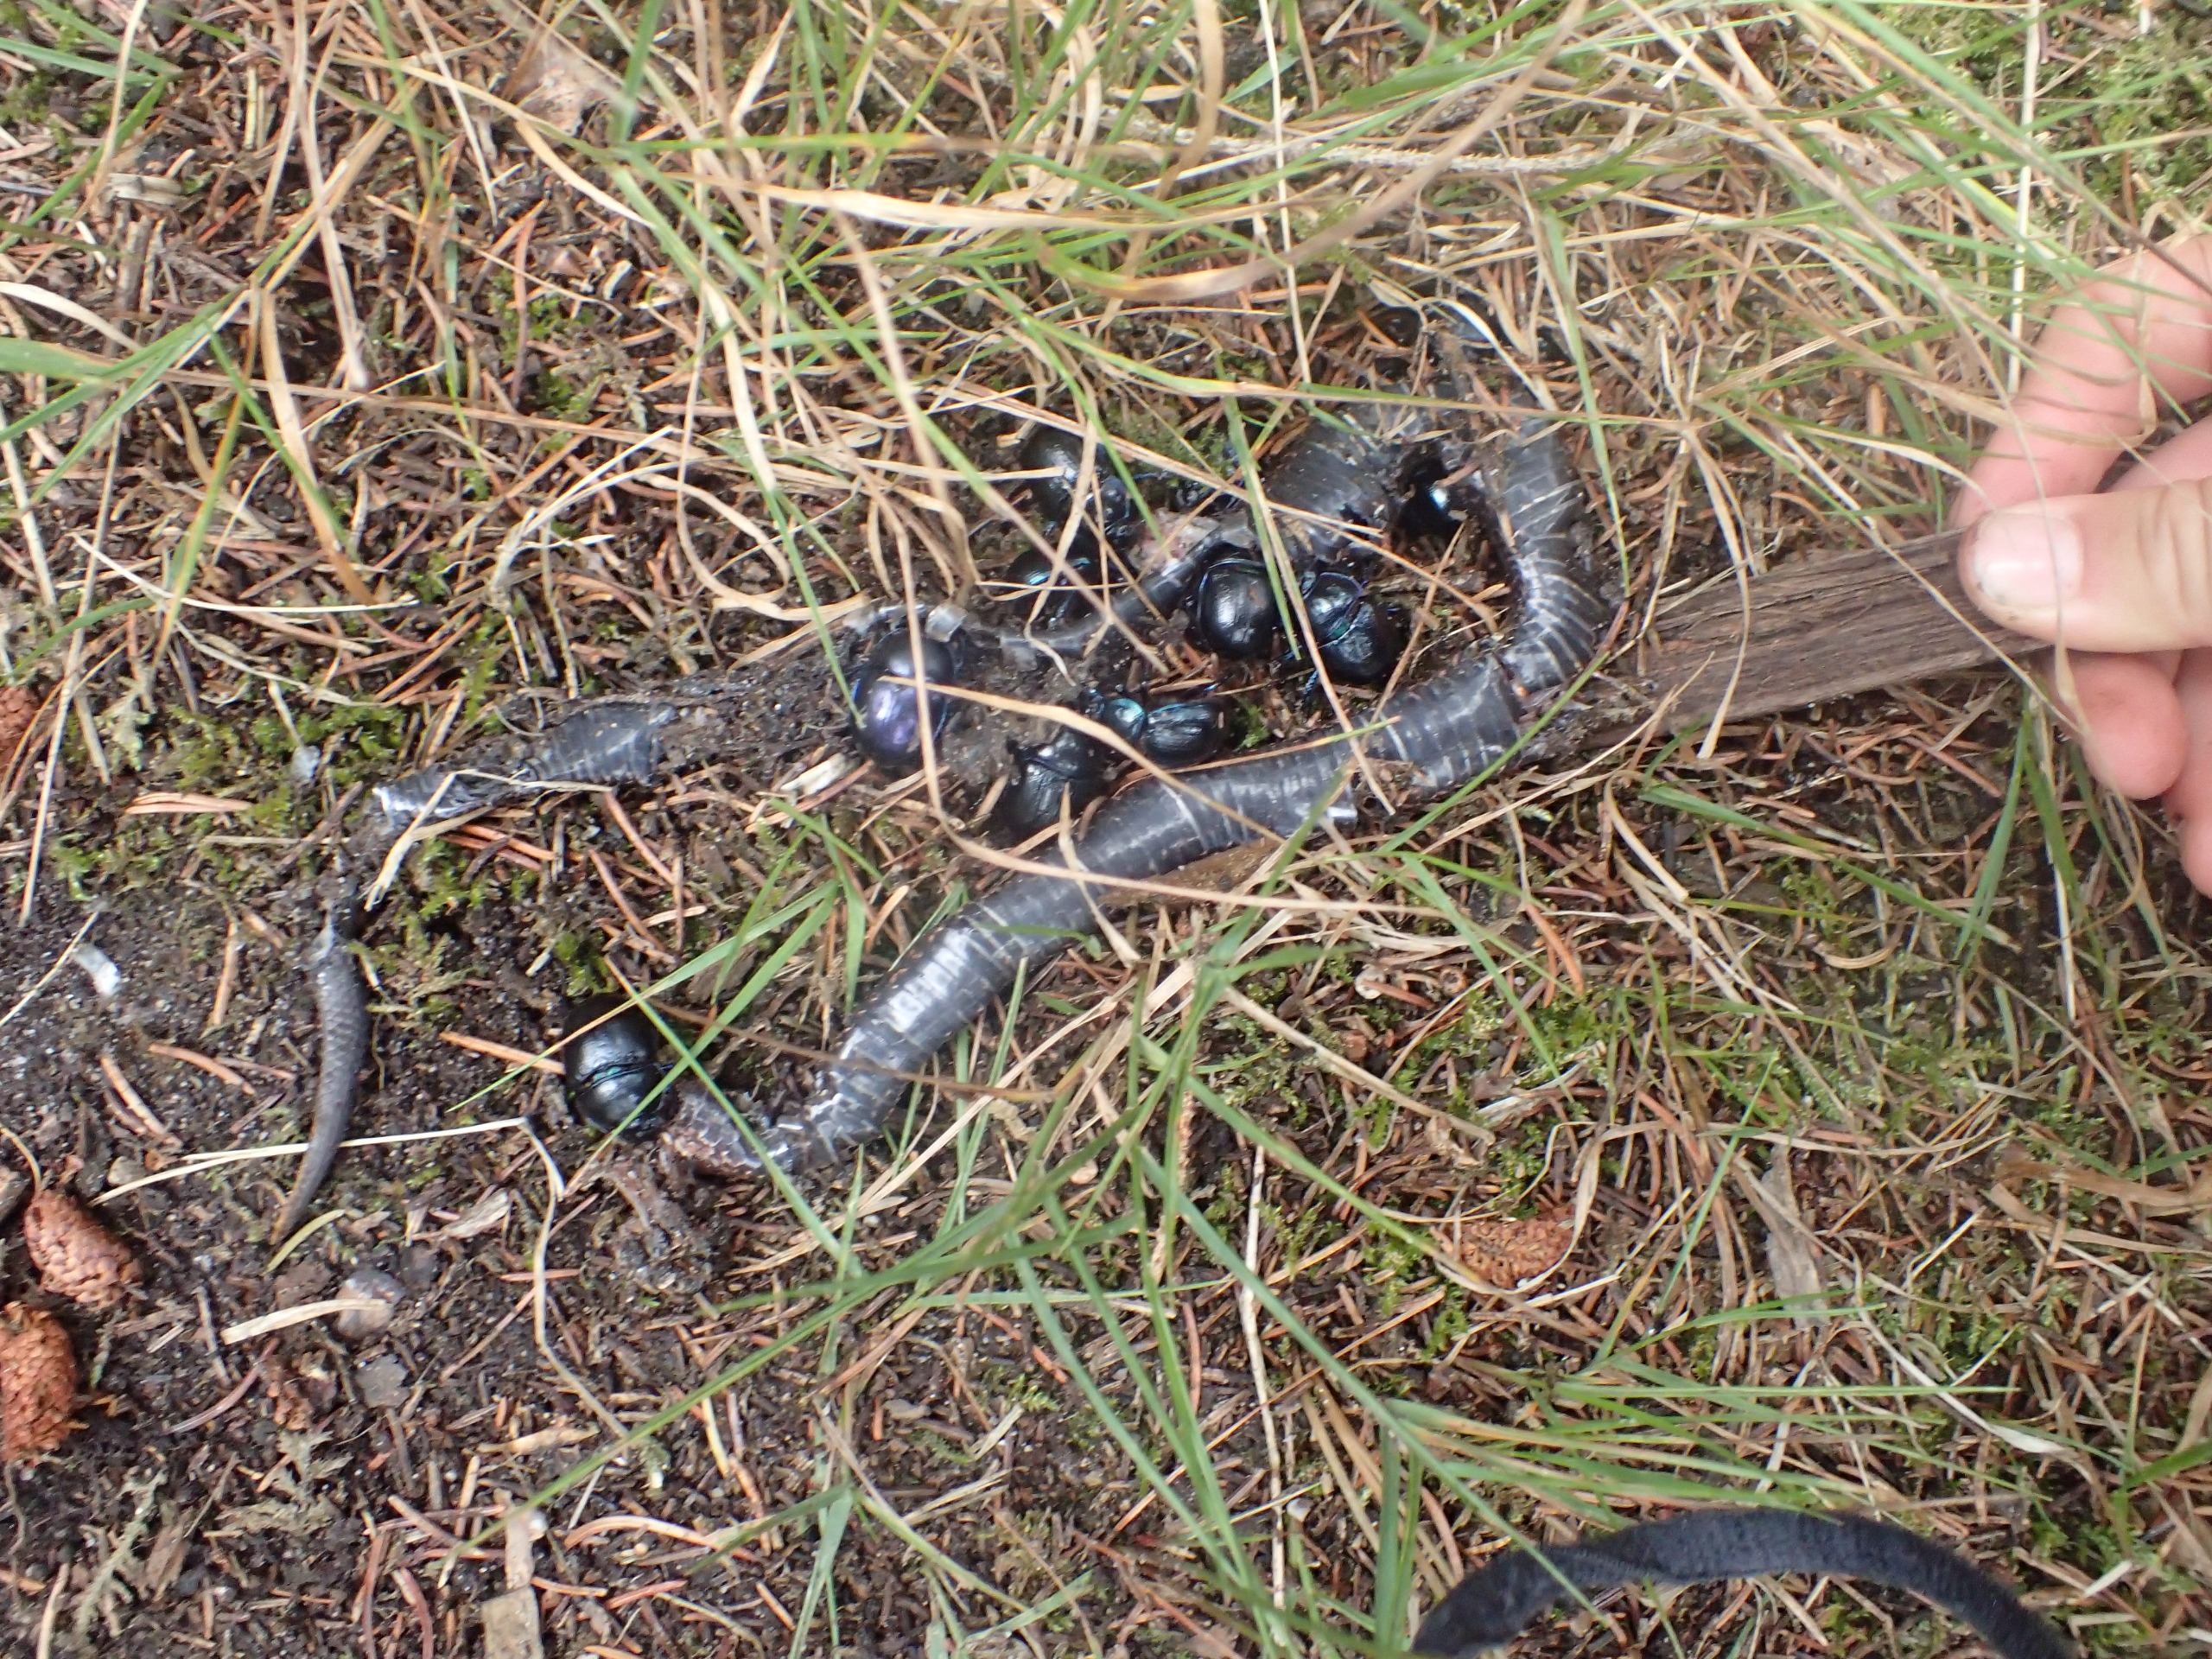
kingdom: Animalia
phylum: Chordata
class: Squamata
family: Anguidae
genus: Anguis
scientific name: Anguis fragilis
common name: Stålorm
